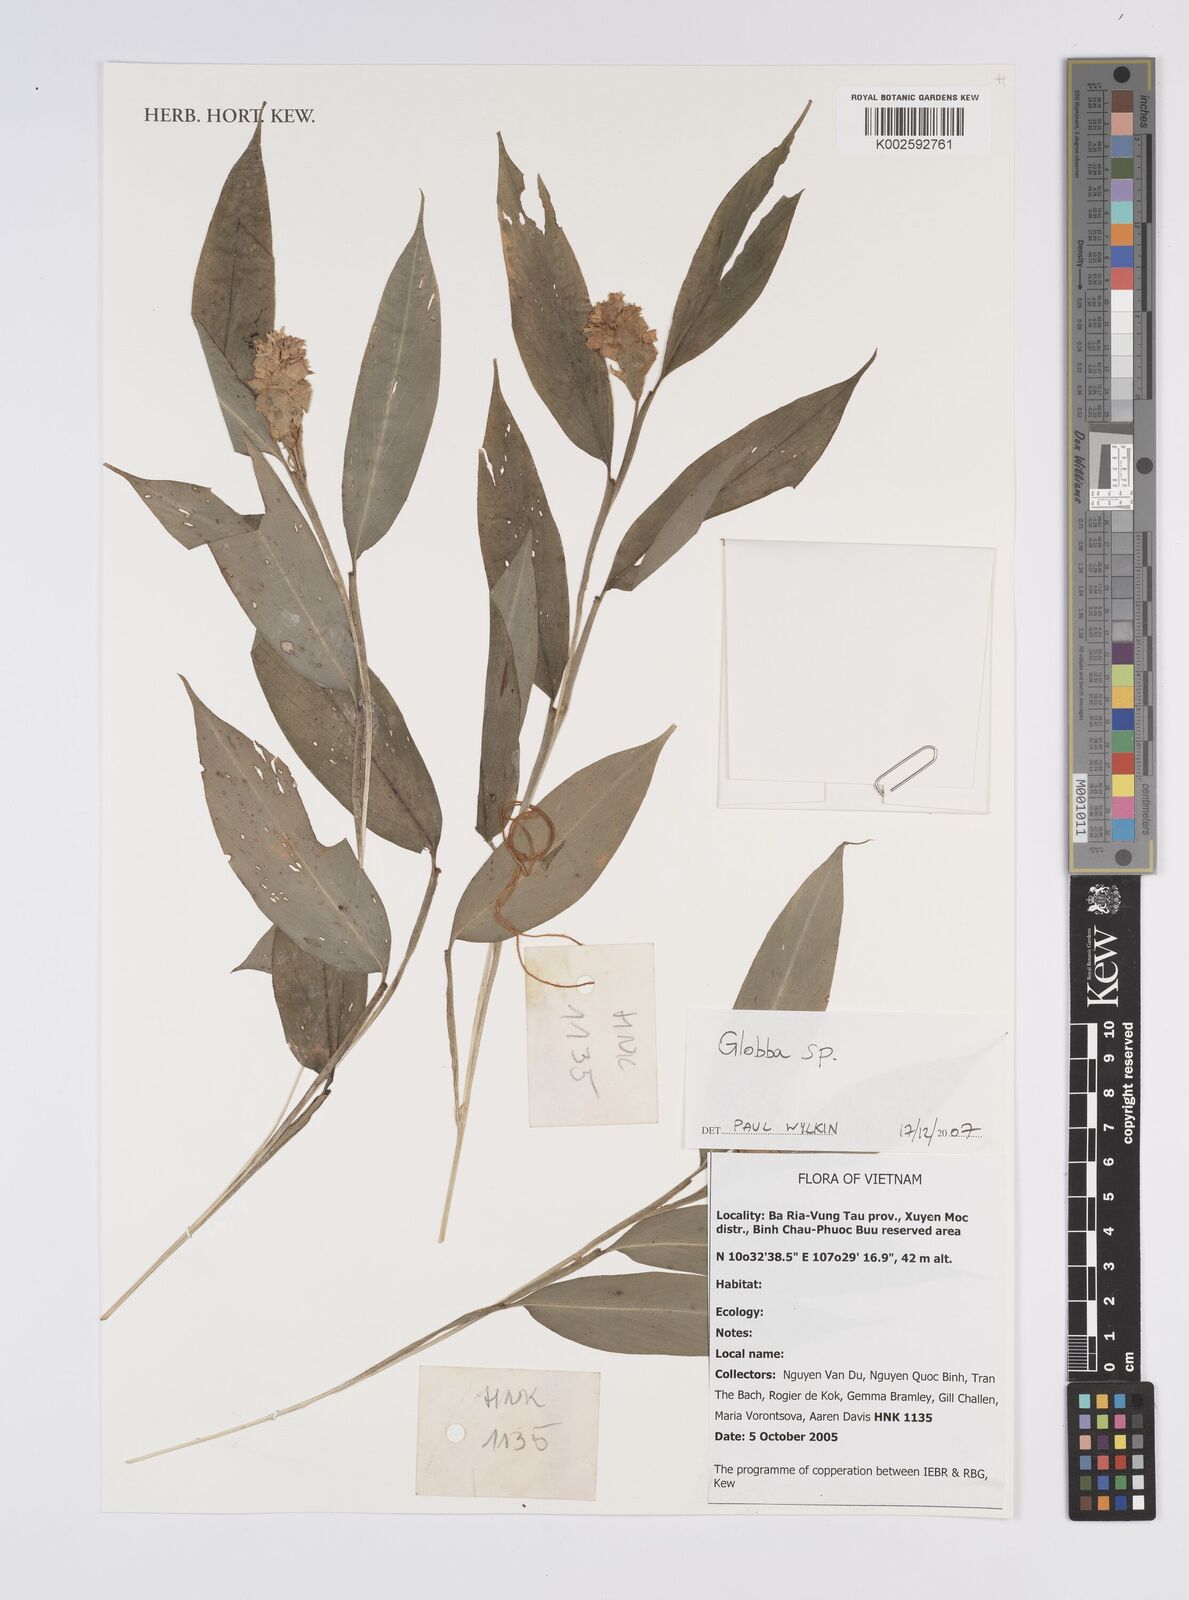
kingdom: Plantae
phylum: Tracheophyta
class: Liliopsida
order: Zingiberales
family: Zingiberaceae
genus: Globba
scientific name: Globba
